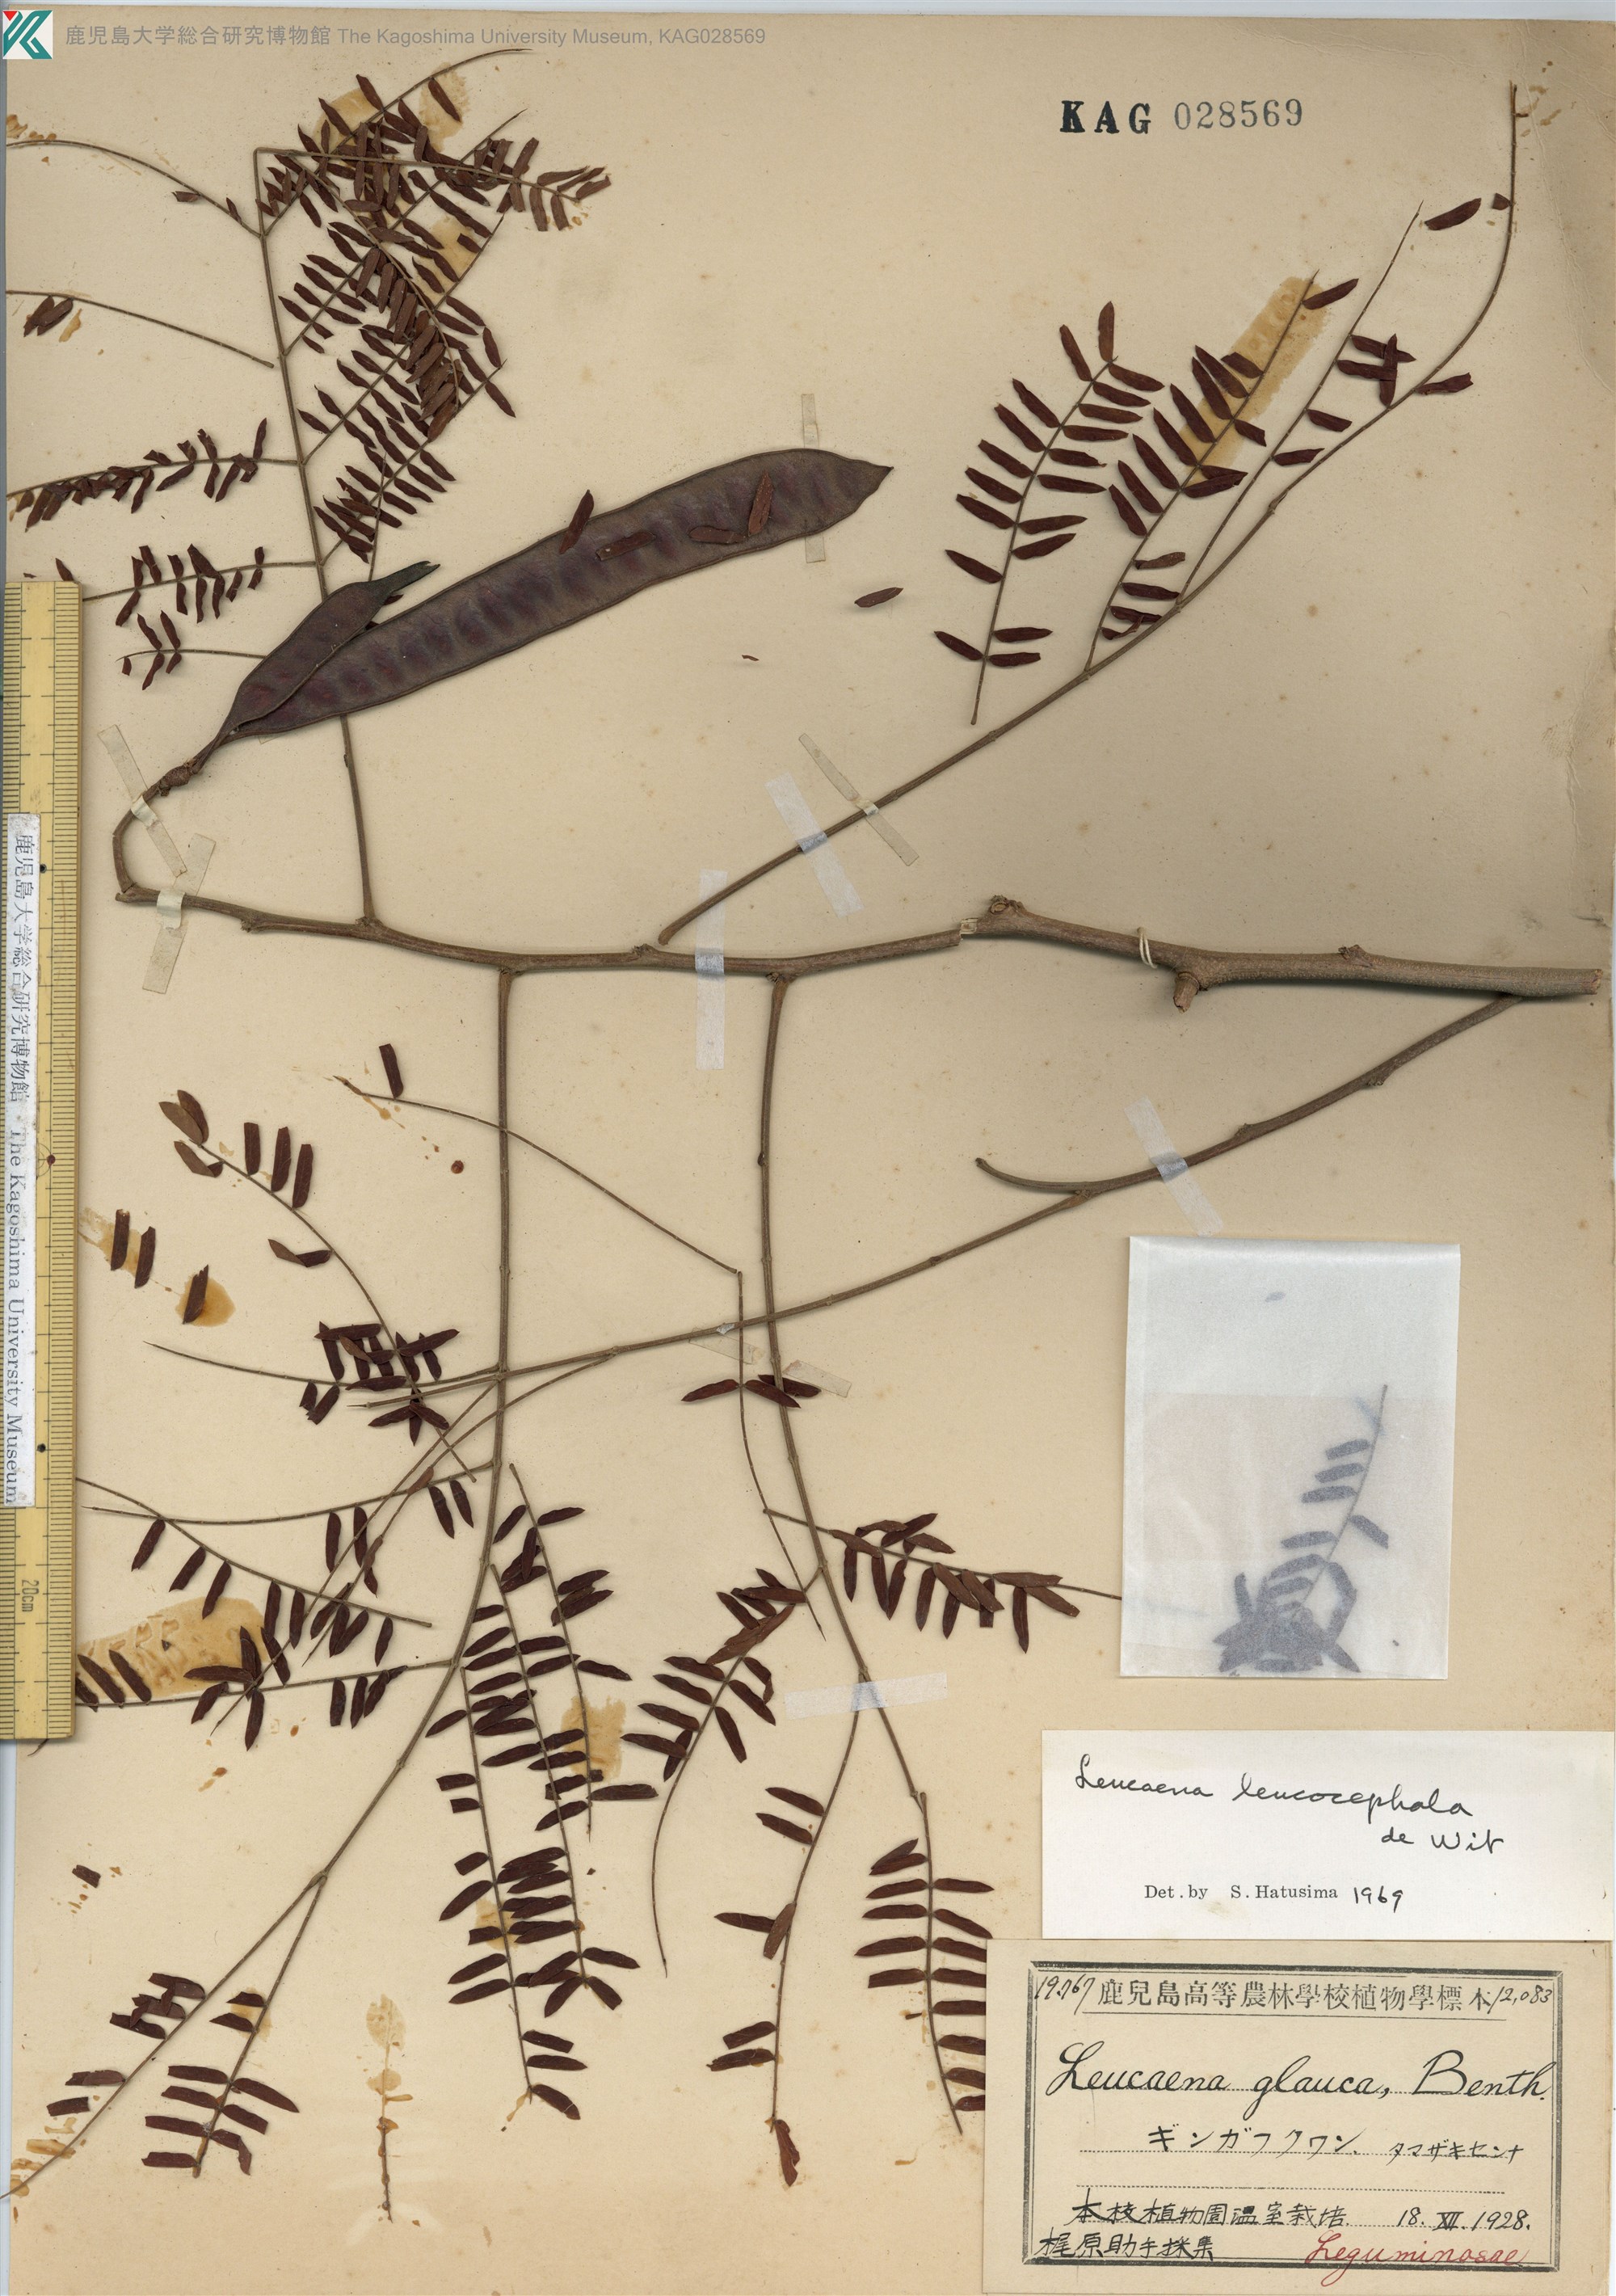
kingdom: Plantae
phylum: Tracheophyta
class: Magnoliopsida
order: Fabales
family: Fabaceae
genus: Leucaena
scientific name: Leucaena leucocephala
